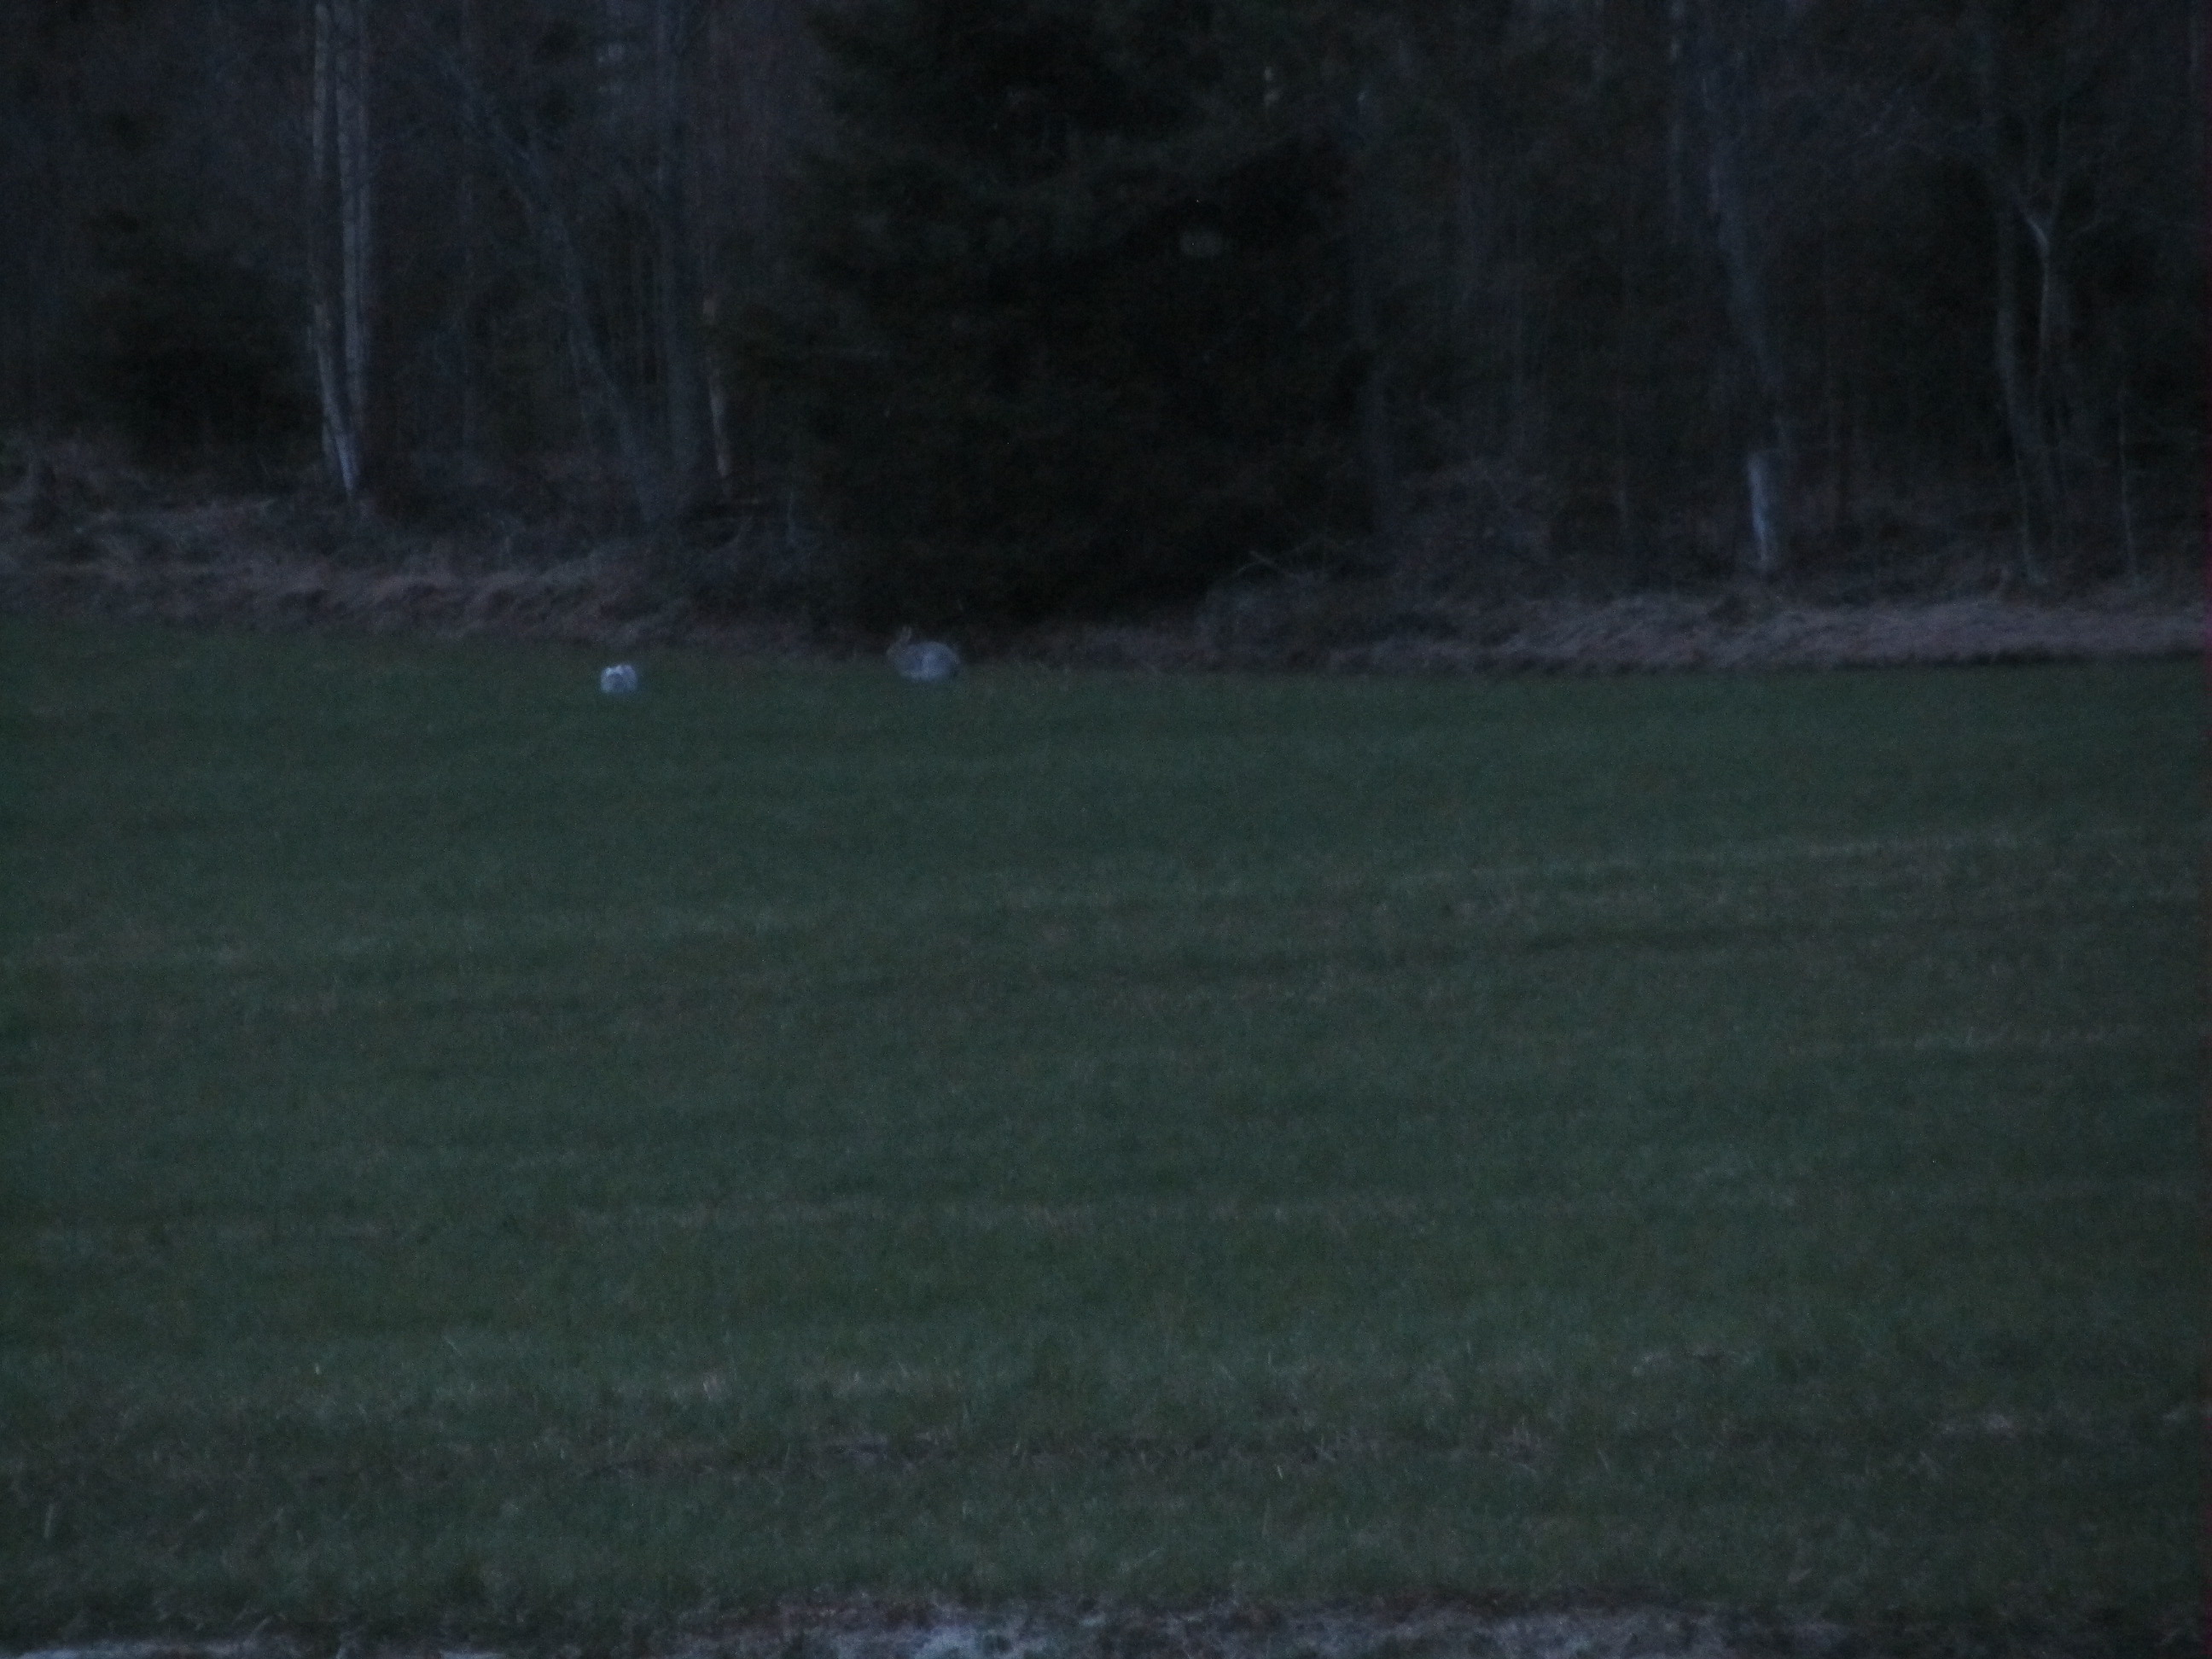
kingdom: Animalia
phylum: Chordata
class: Mammalia
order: Lagomorpha
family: Leporidae
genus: Lepus
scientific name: Lepus timidus
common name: Mountain hare
